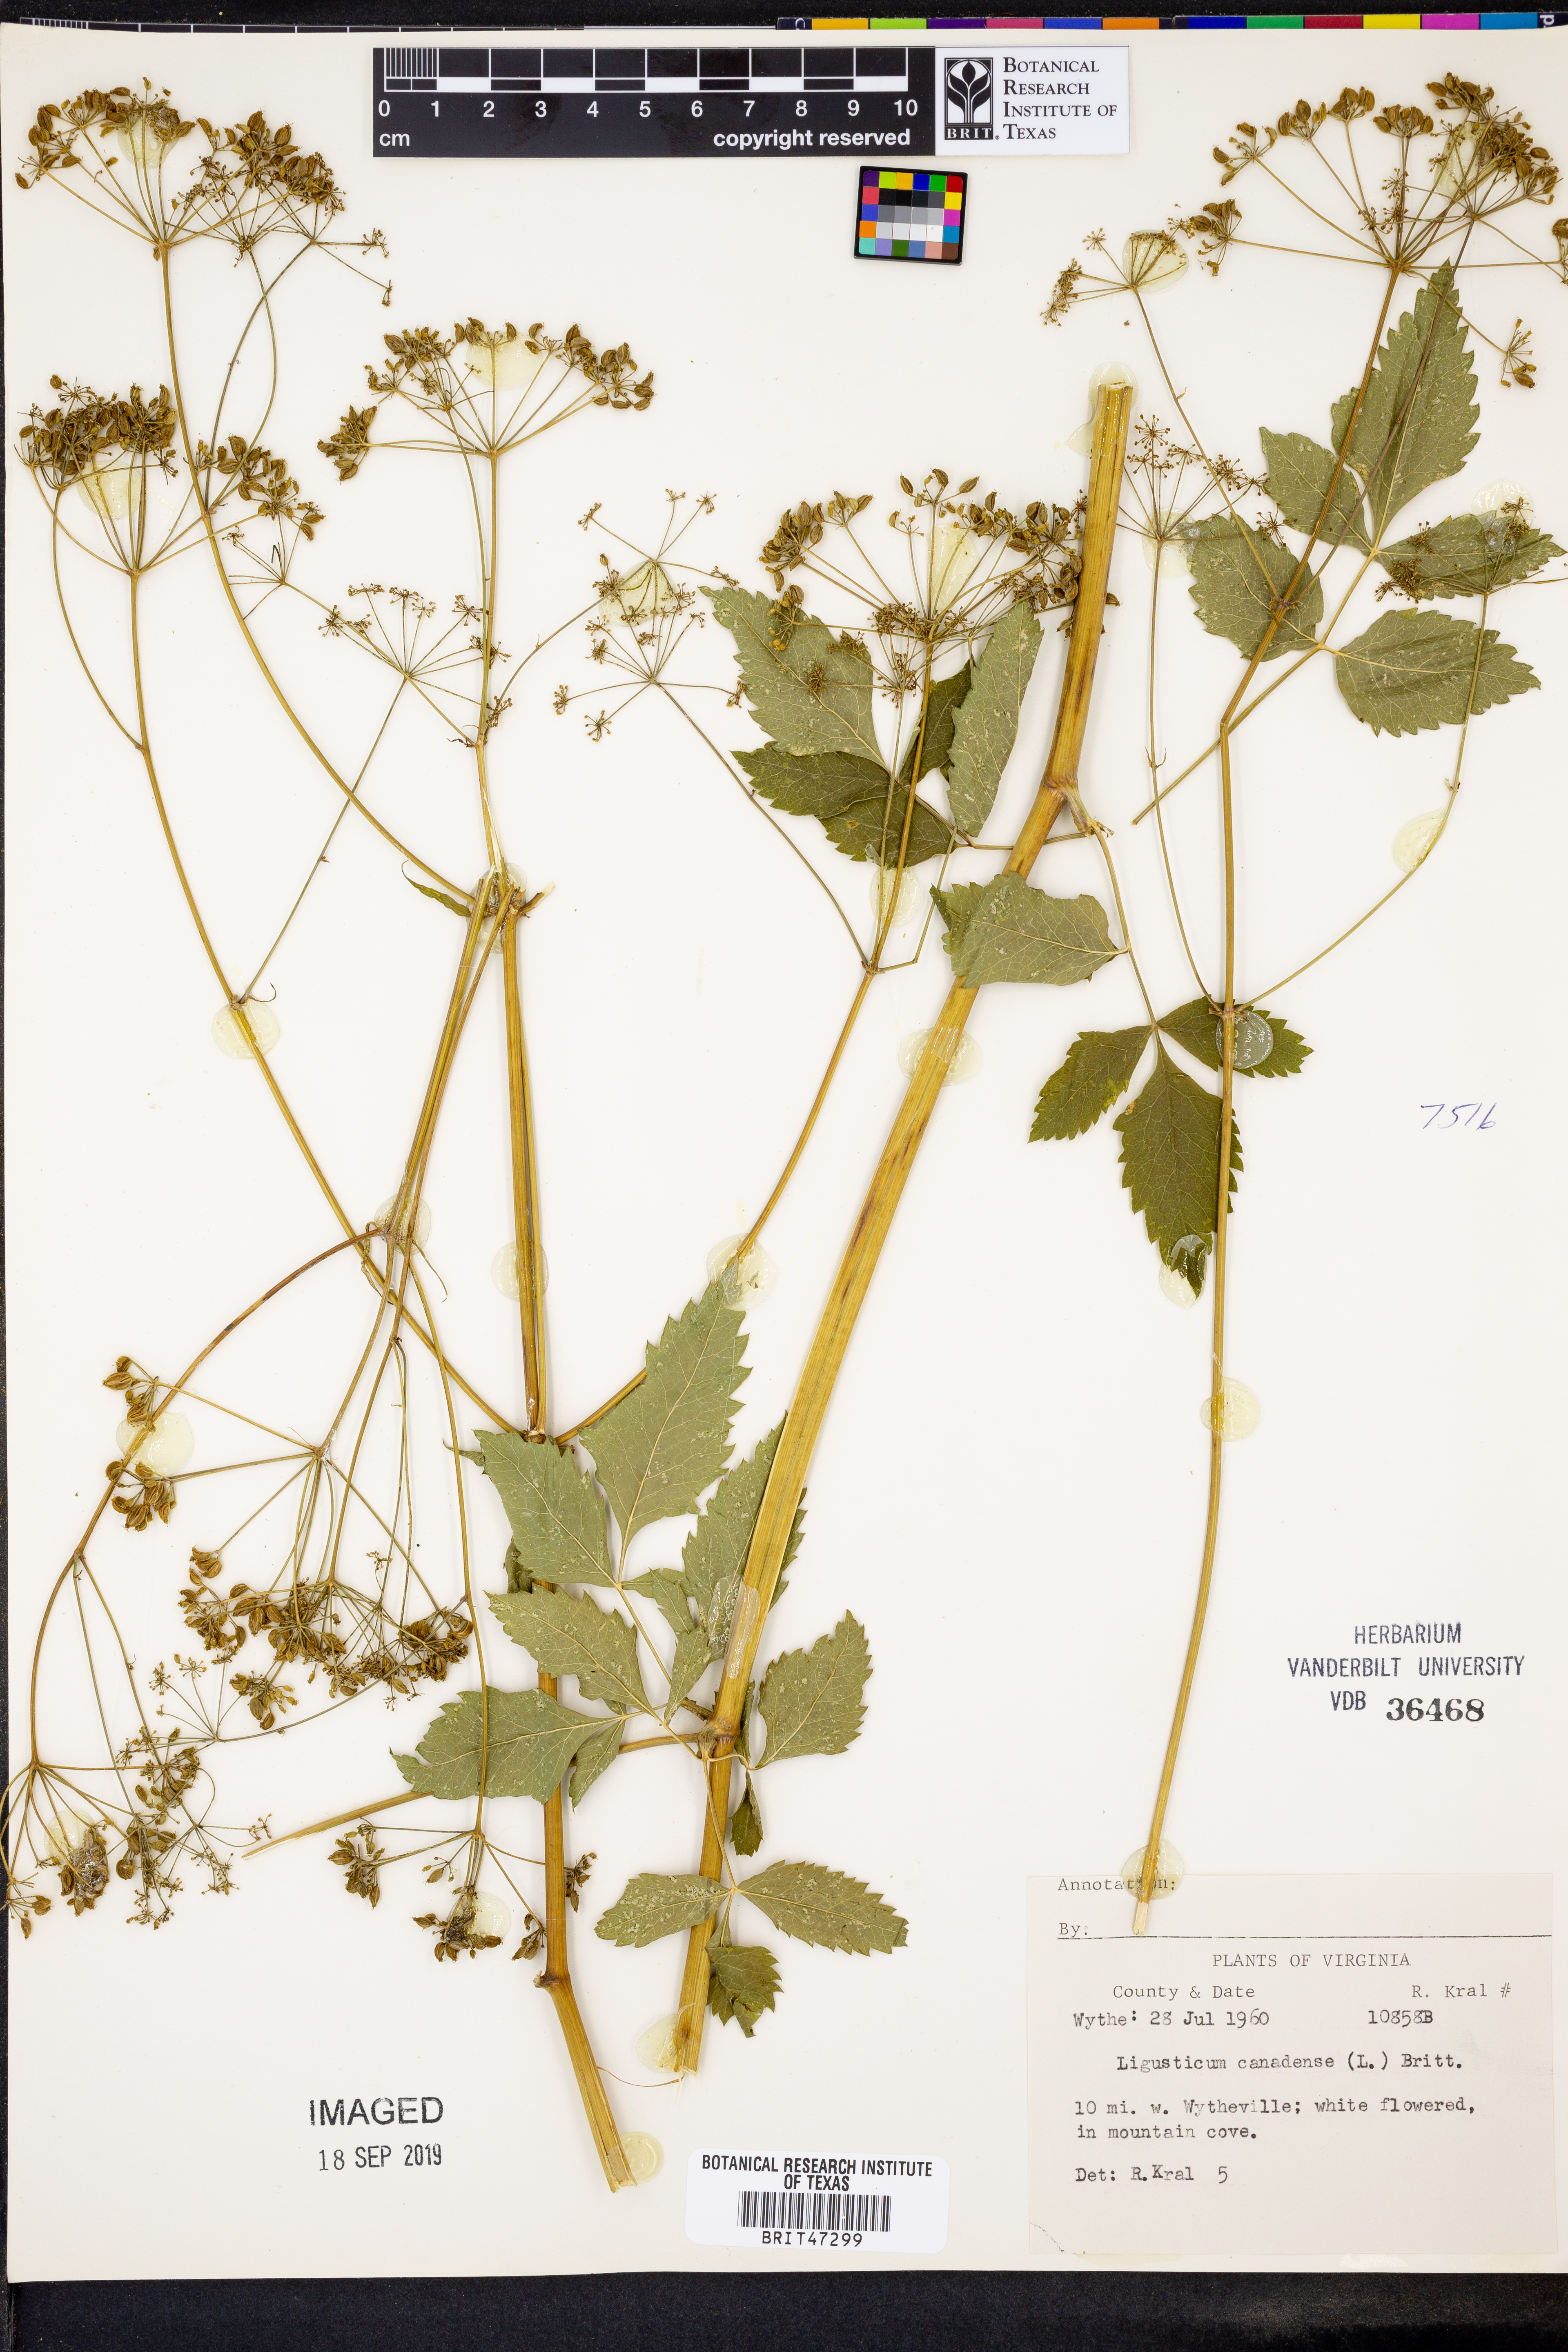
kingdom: Plantae
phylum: Tracheophyta
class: Magnoliopsida
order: Apiales
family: Apiaceae
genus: Ligusticum
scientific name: Ligusticum canadense
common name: American lovage
